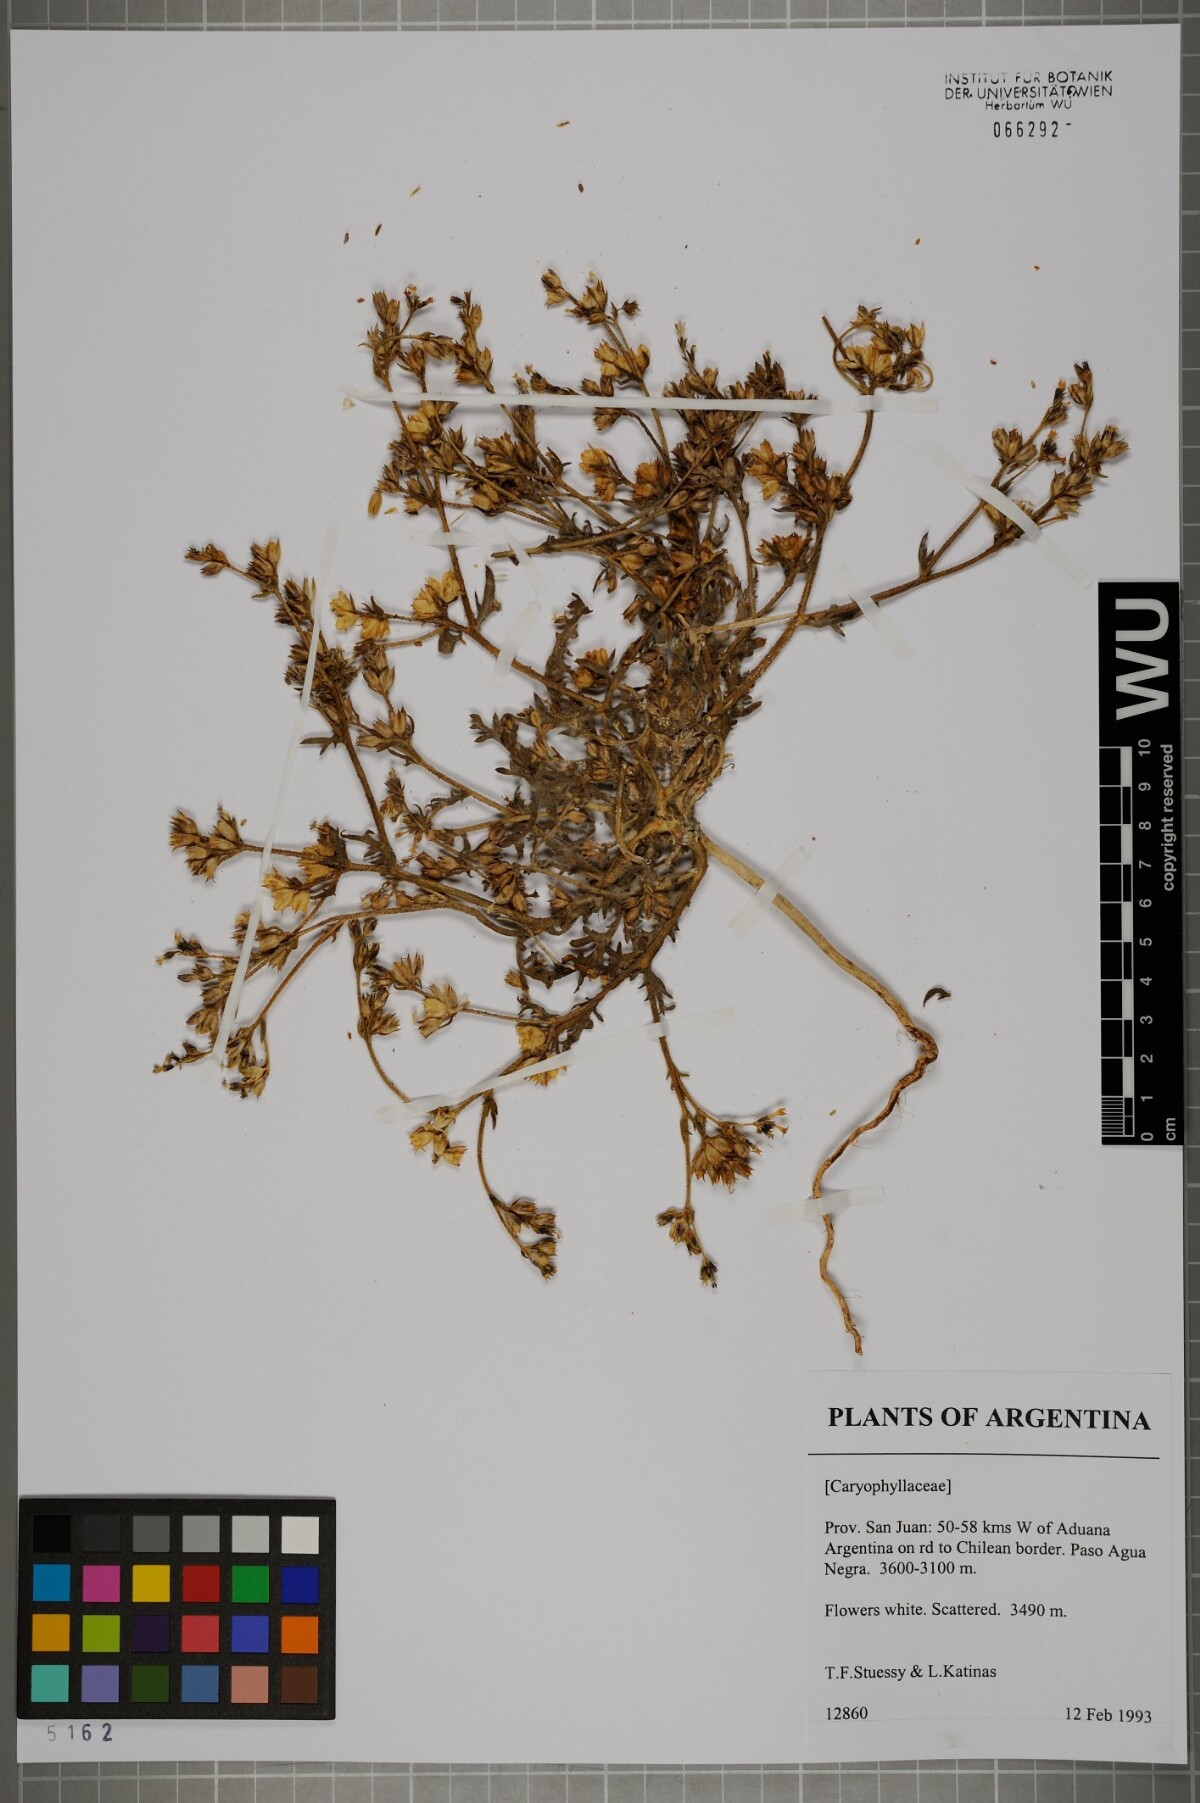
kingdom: Plantae
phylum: Tracheophyta
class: Magnoliopsida
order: Caryophyllales
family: Caryophyllaceae
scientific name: Caryophyllaceae
